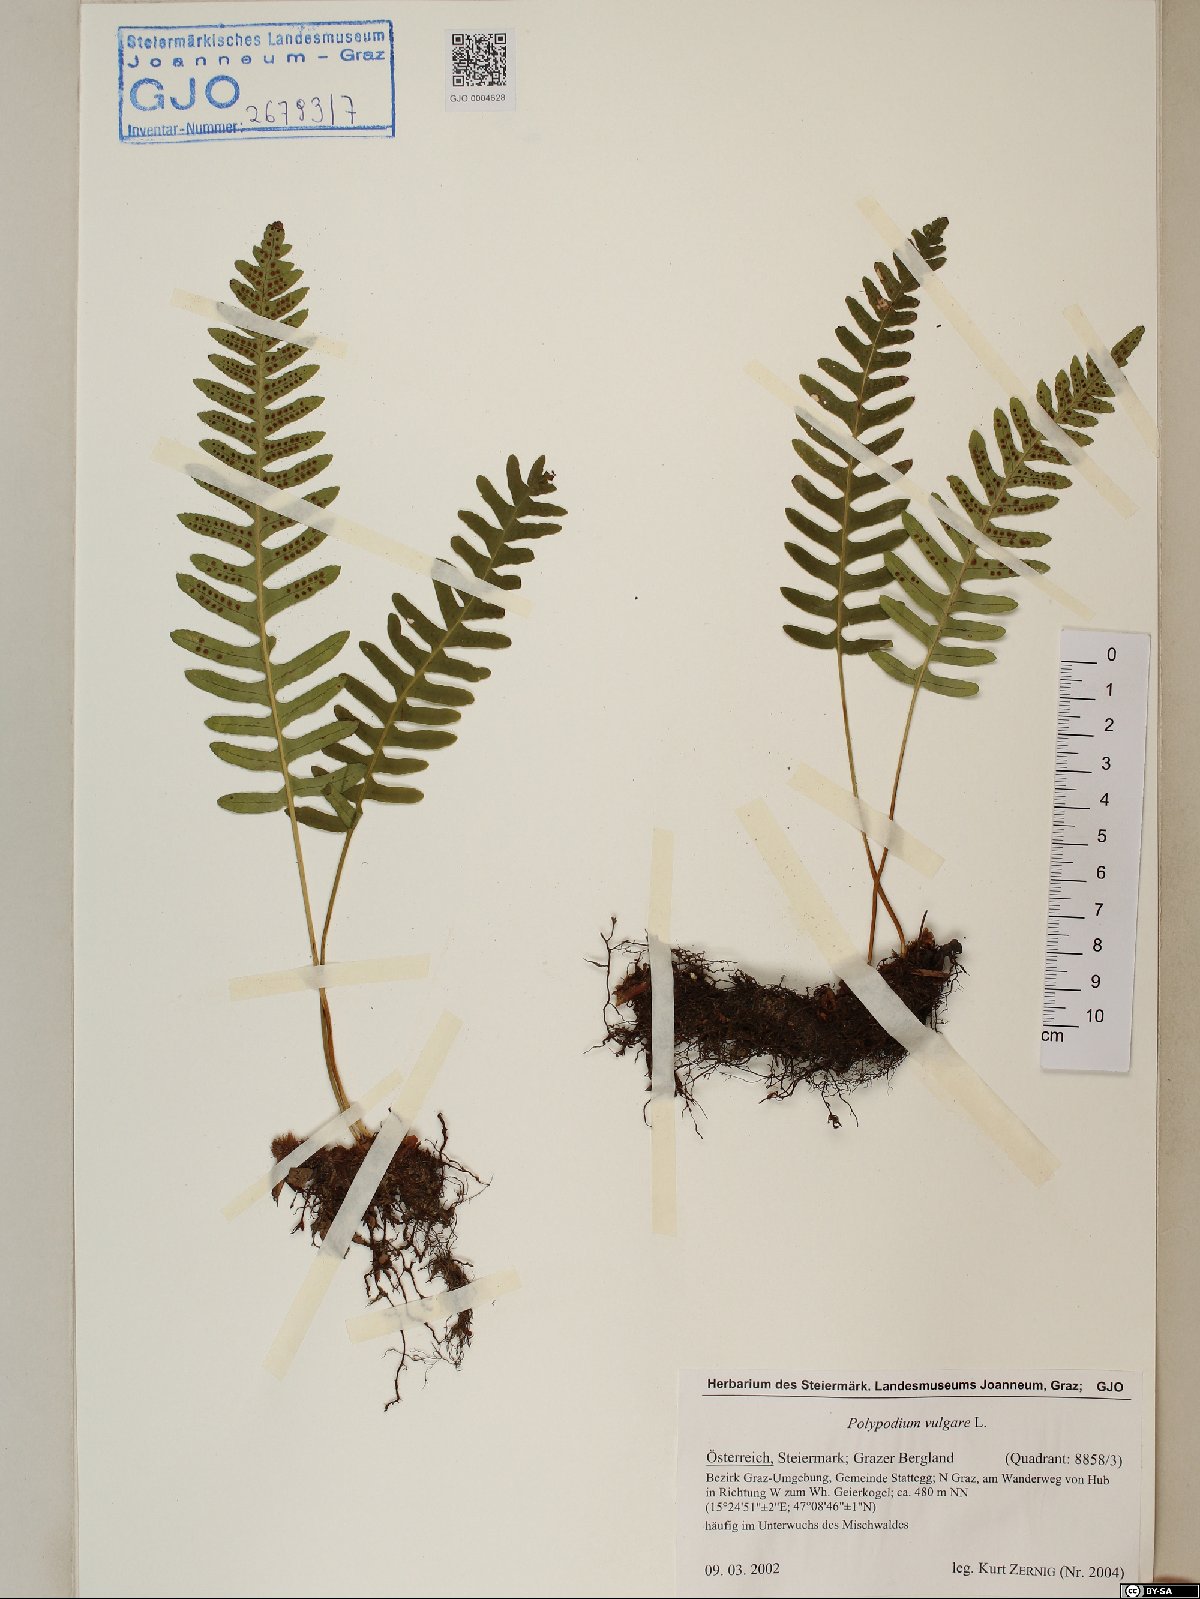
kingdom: Plantae
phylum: Tracheophyta
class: Polypodiopsida
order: Polypodiales
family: Polypodiaceae
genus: Polypodium
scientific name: Polypodium vulgare
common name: Common polypody
